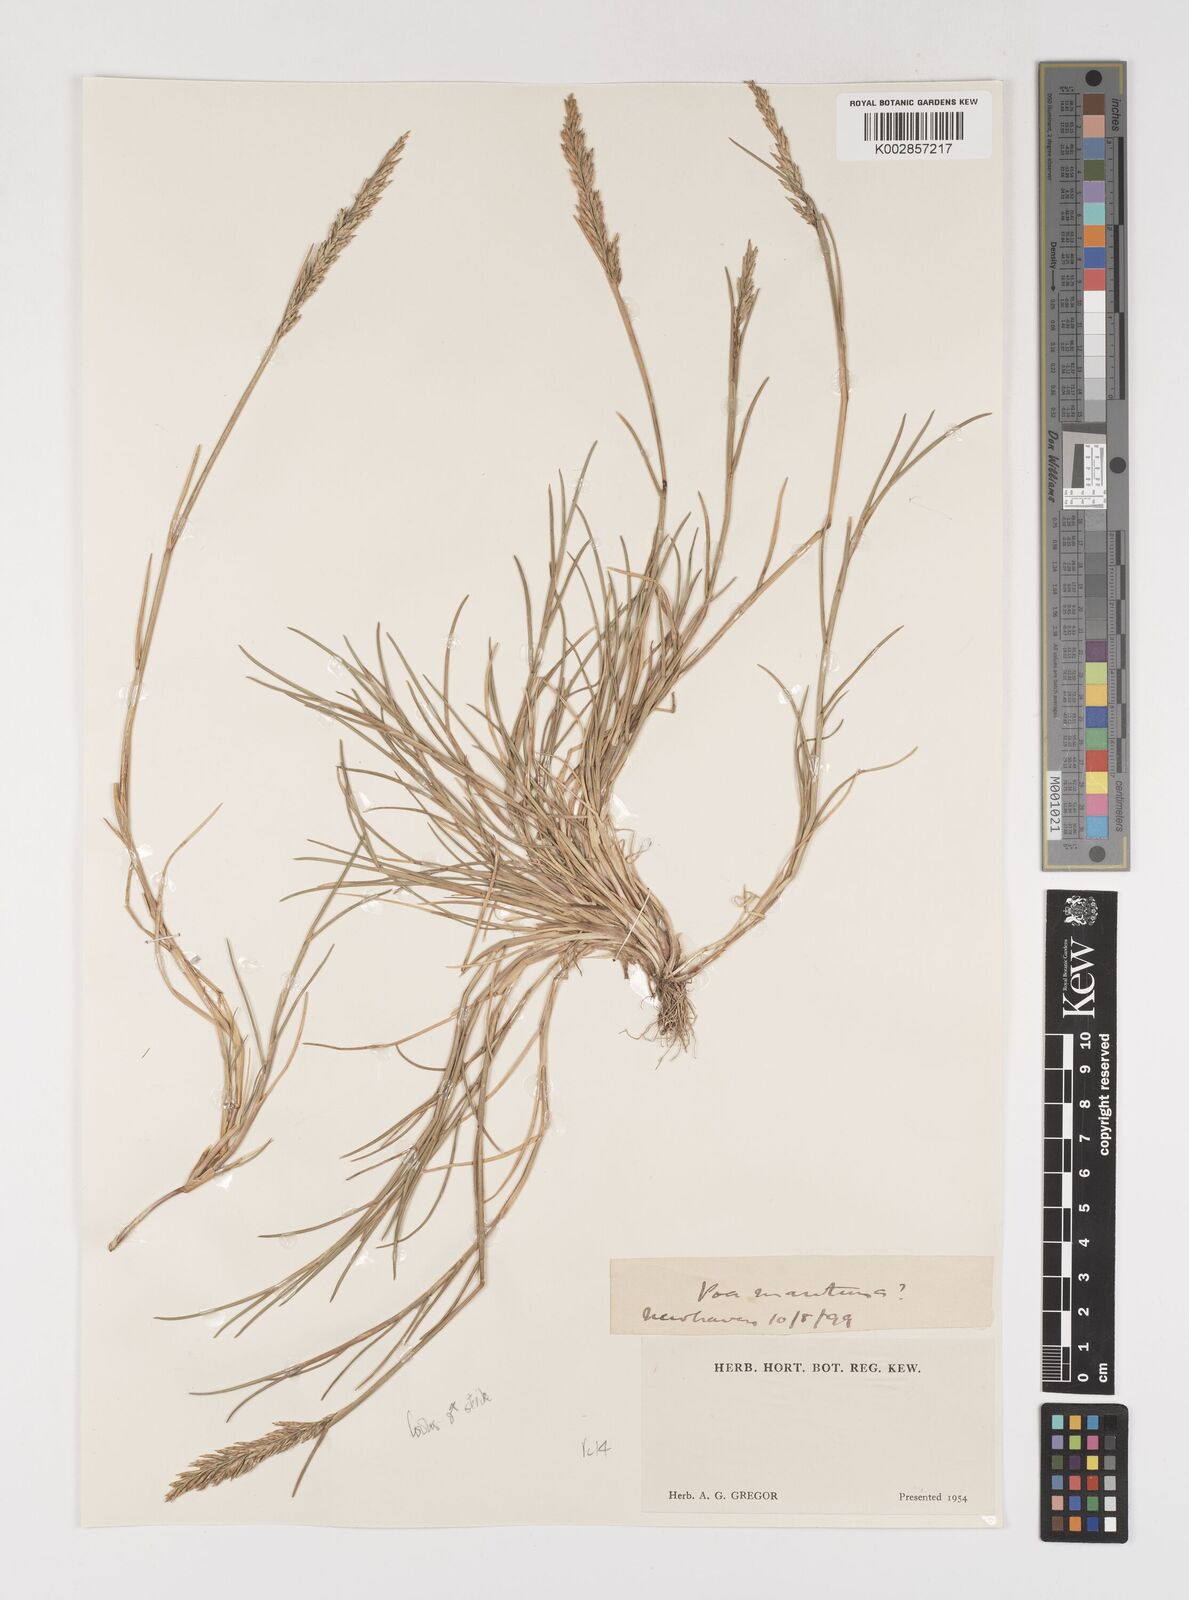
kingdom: Plantae
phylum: Tracheophyta
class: Liliopsida
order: Poales
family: Poaceae
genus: Puccinellia
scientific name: Puccinellia
